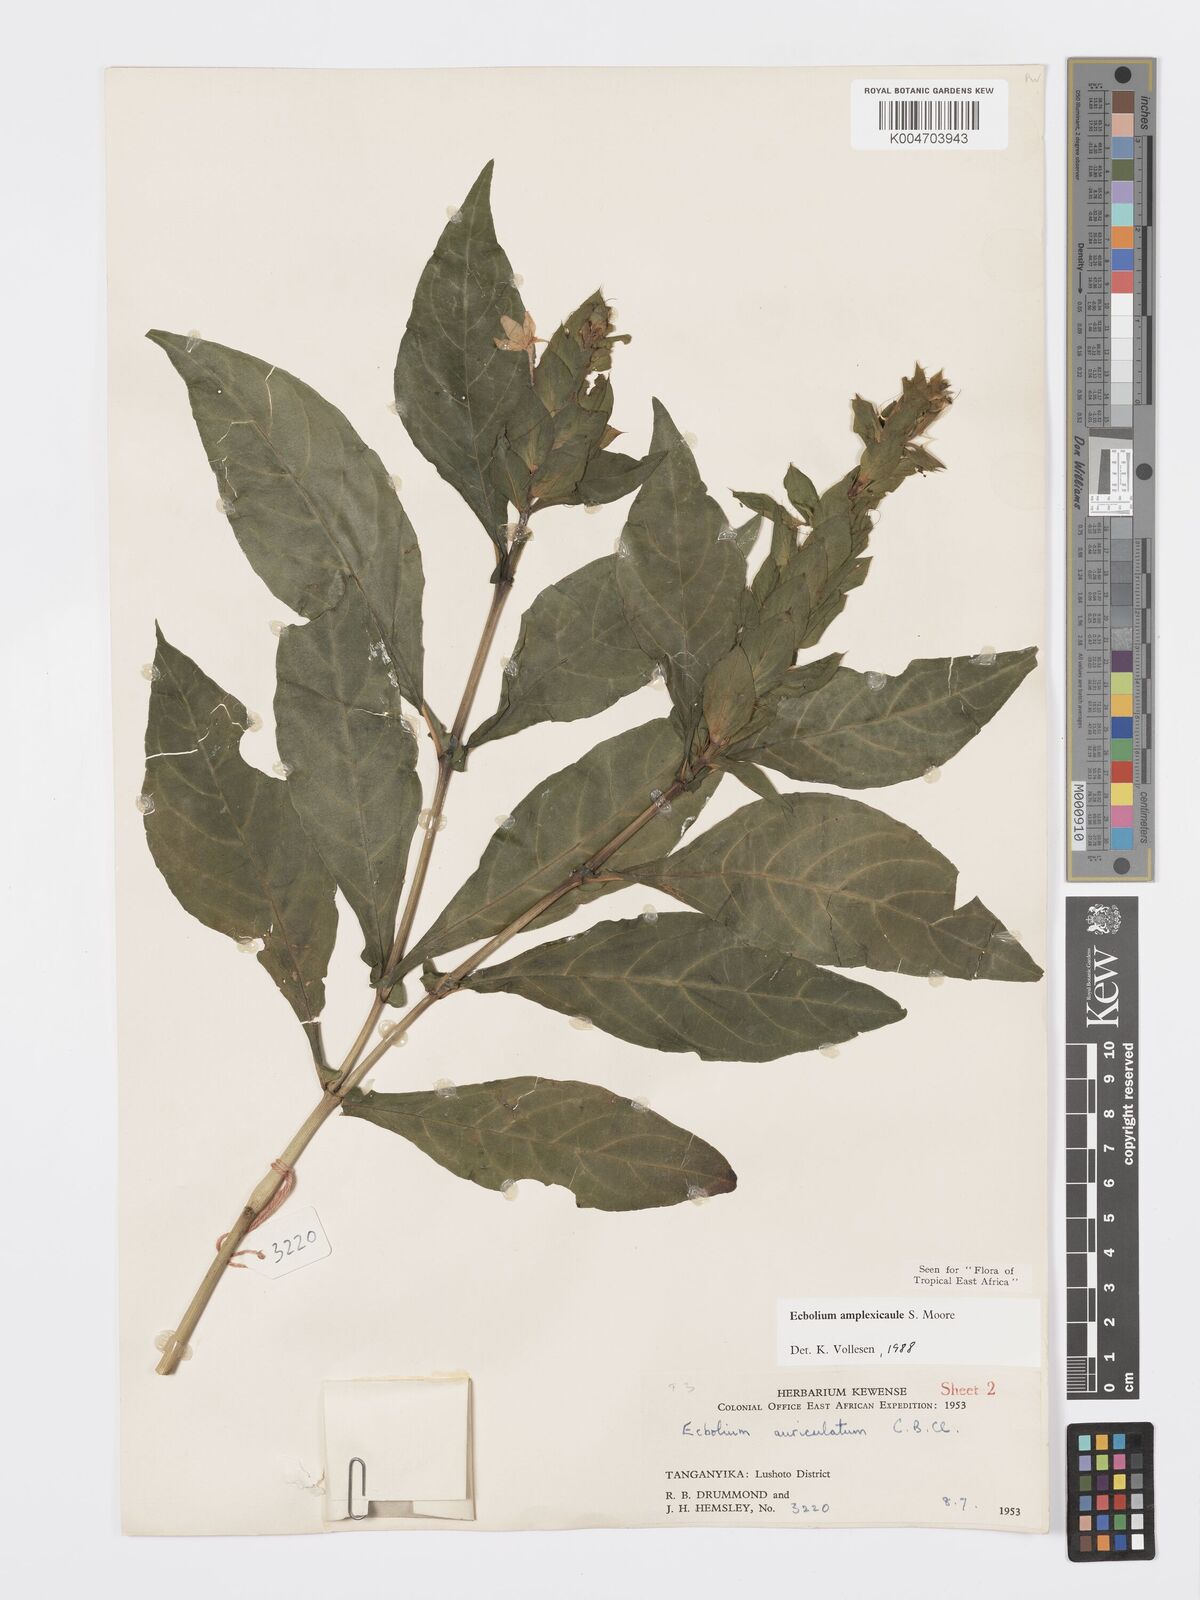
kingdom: Plantae
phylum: Tracheophyta
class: Magnoliopsida
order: Lamiales
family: Acanthaceae
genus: Ecbolium
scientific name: Ecbolium amplexicaule
